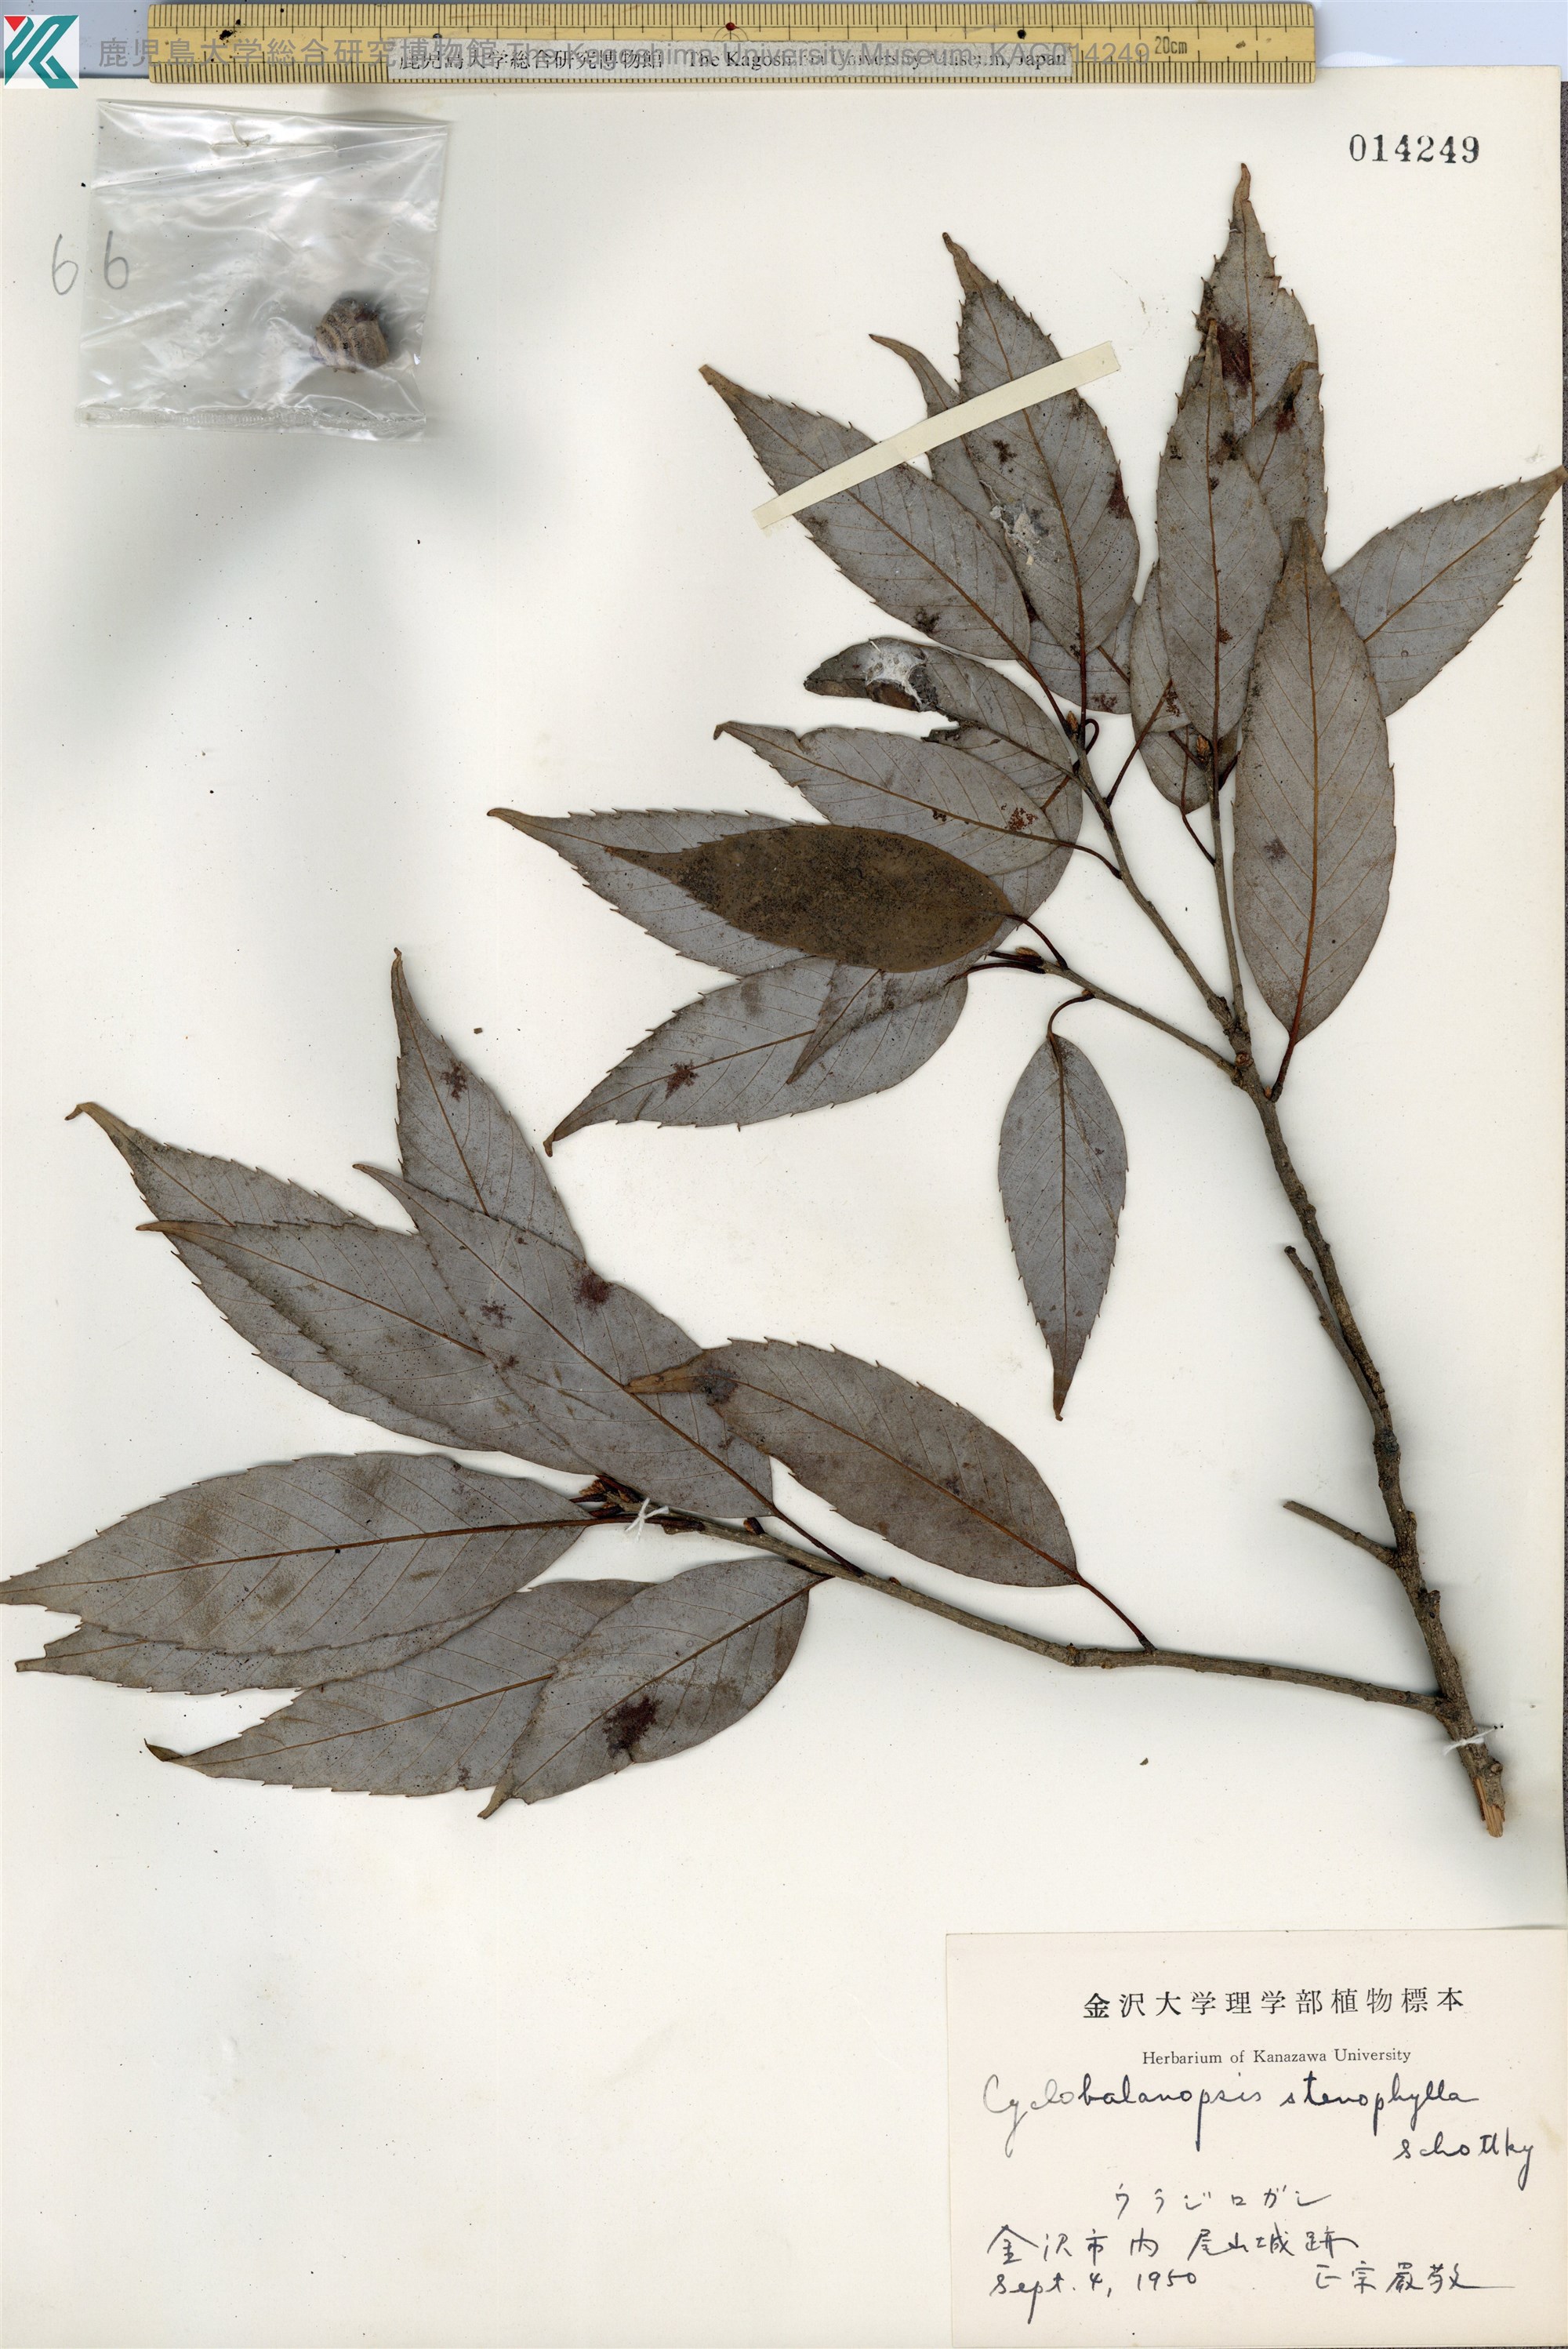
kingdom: Plantae
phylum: Tracheophyta
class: Magnoliopsida
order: Fagales
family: Fagaceae
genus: Quercus
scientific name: Quercus salicina
